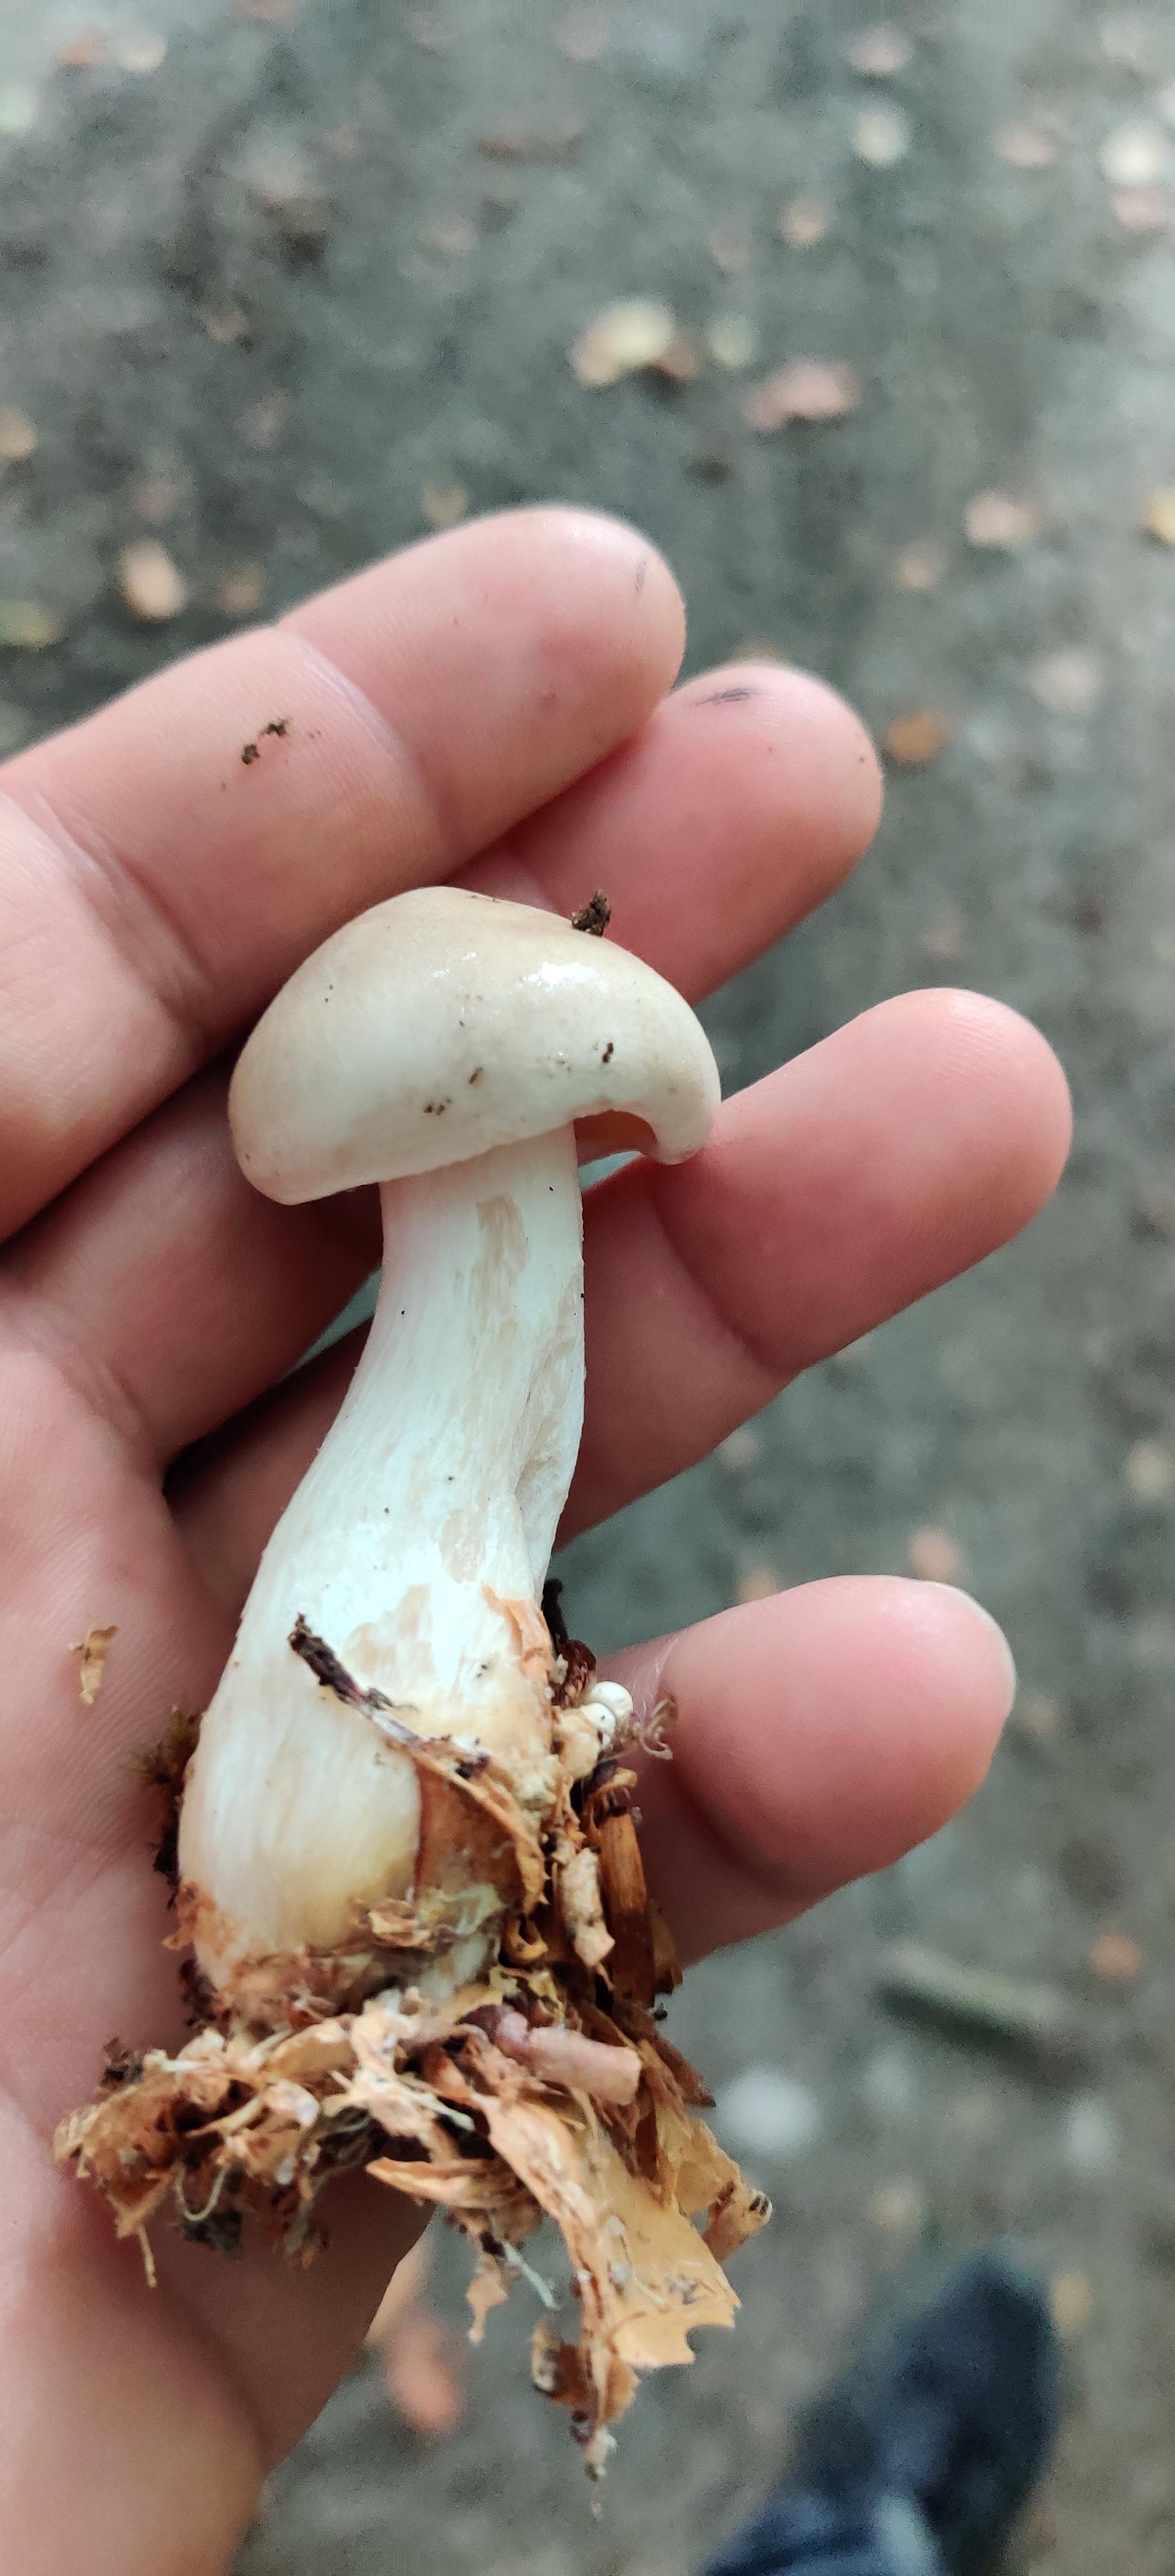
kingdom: Fungi
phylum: Basidiomycota
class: Agaricomycetes
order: Agaricales
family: Tricholomataceae
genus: Clitocybe
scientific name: Clitocybe nebularis
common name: tåge-tragthat
